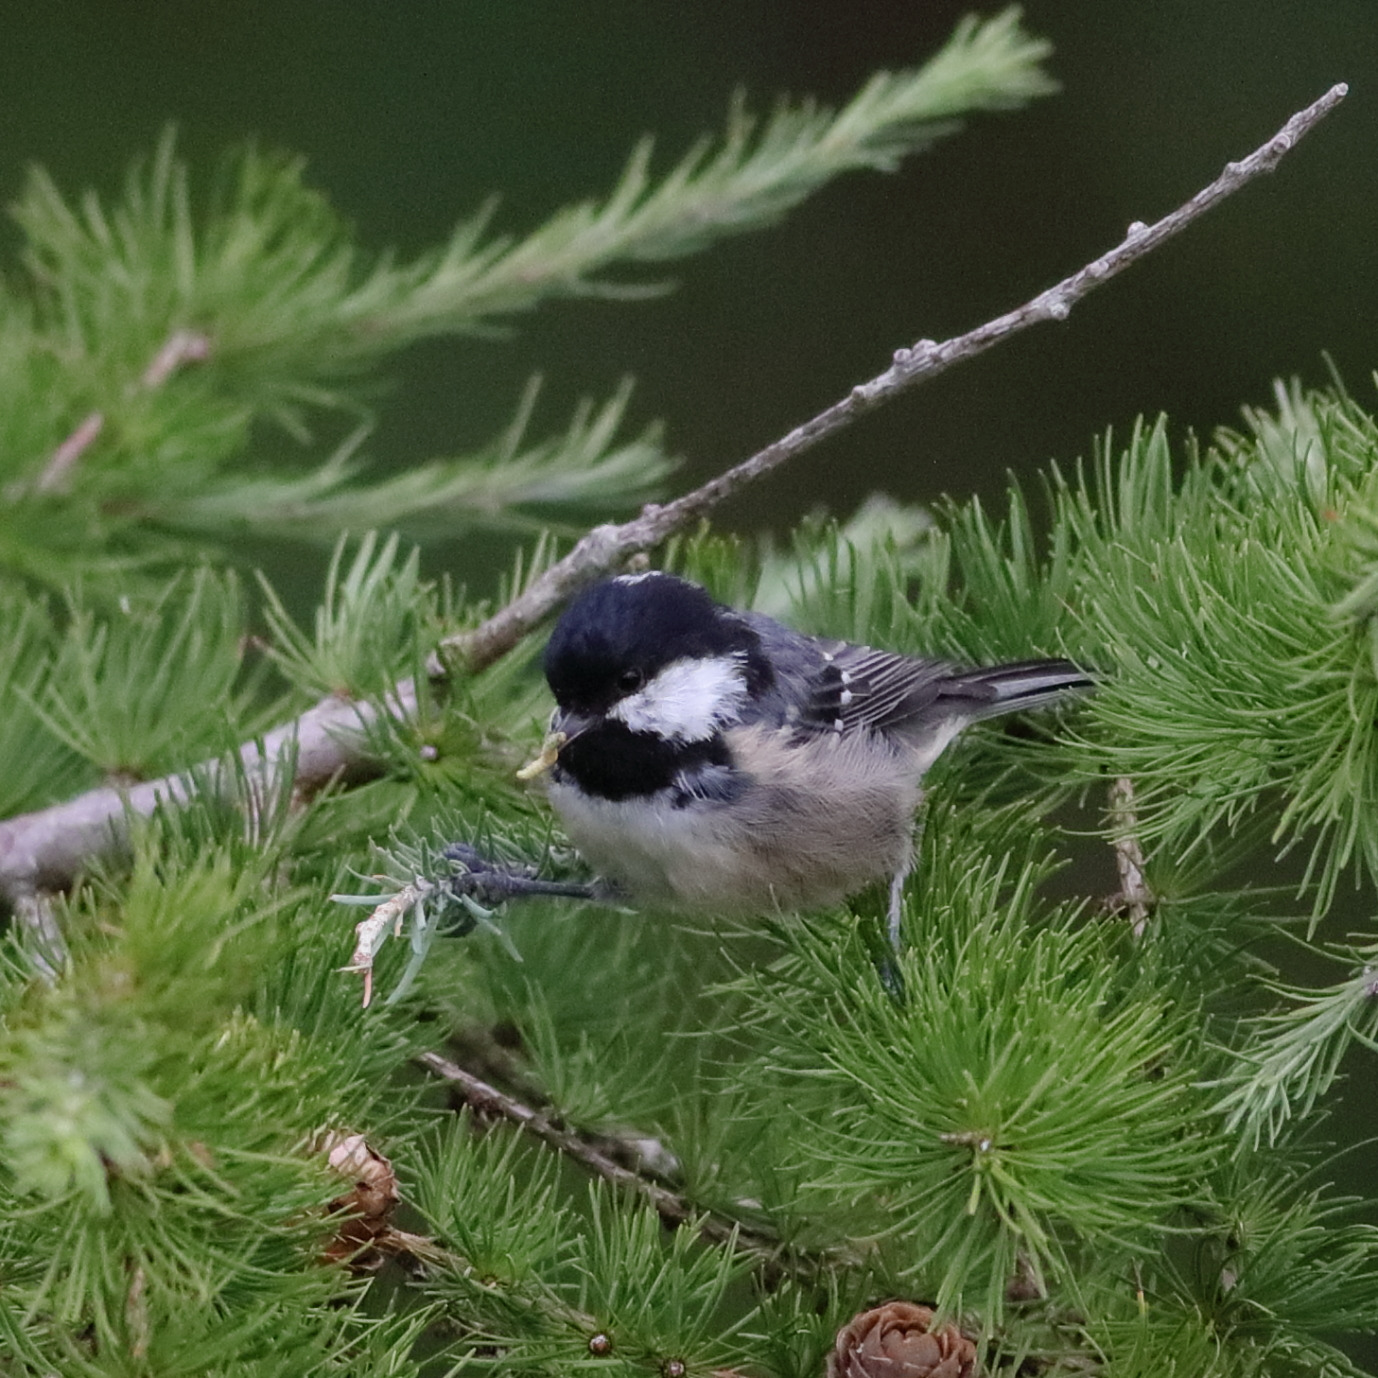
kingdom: Animalia
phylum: Chordata
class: Aves
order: Passeriformes
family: Paridae
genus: Periparus
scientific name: Periparus ater
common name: Sortmejse
